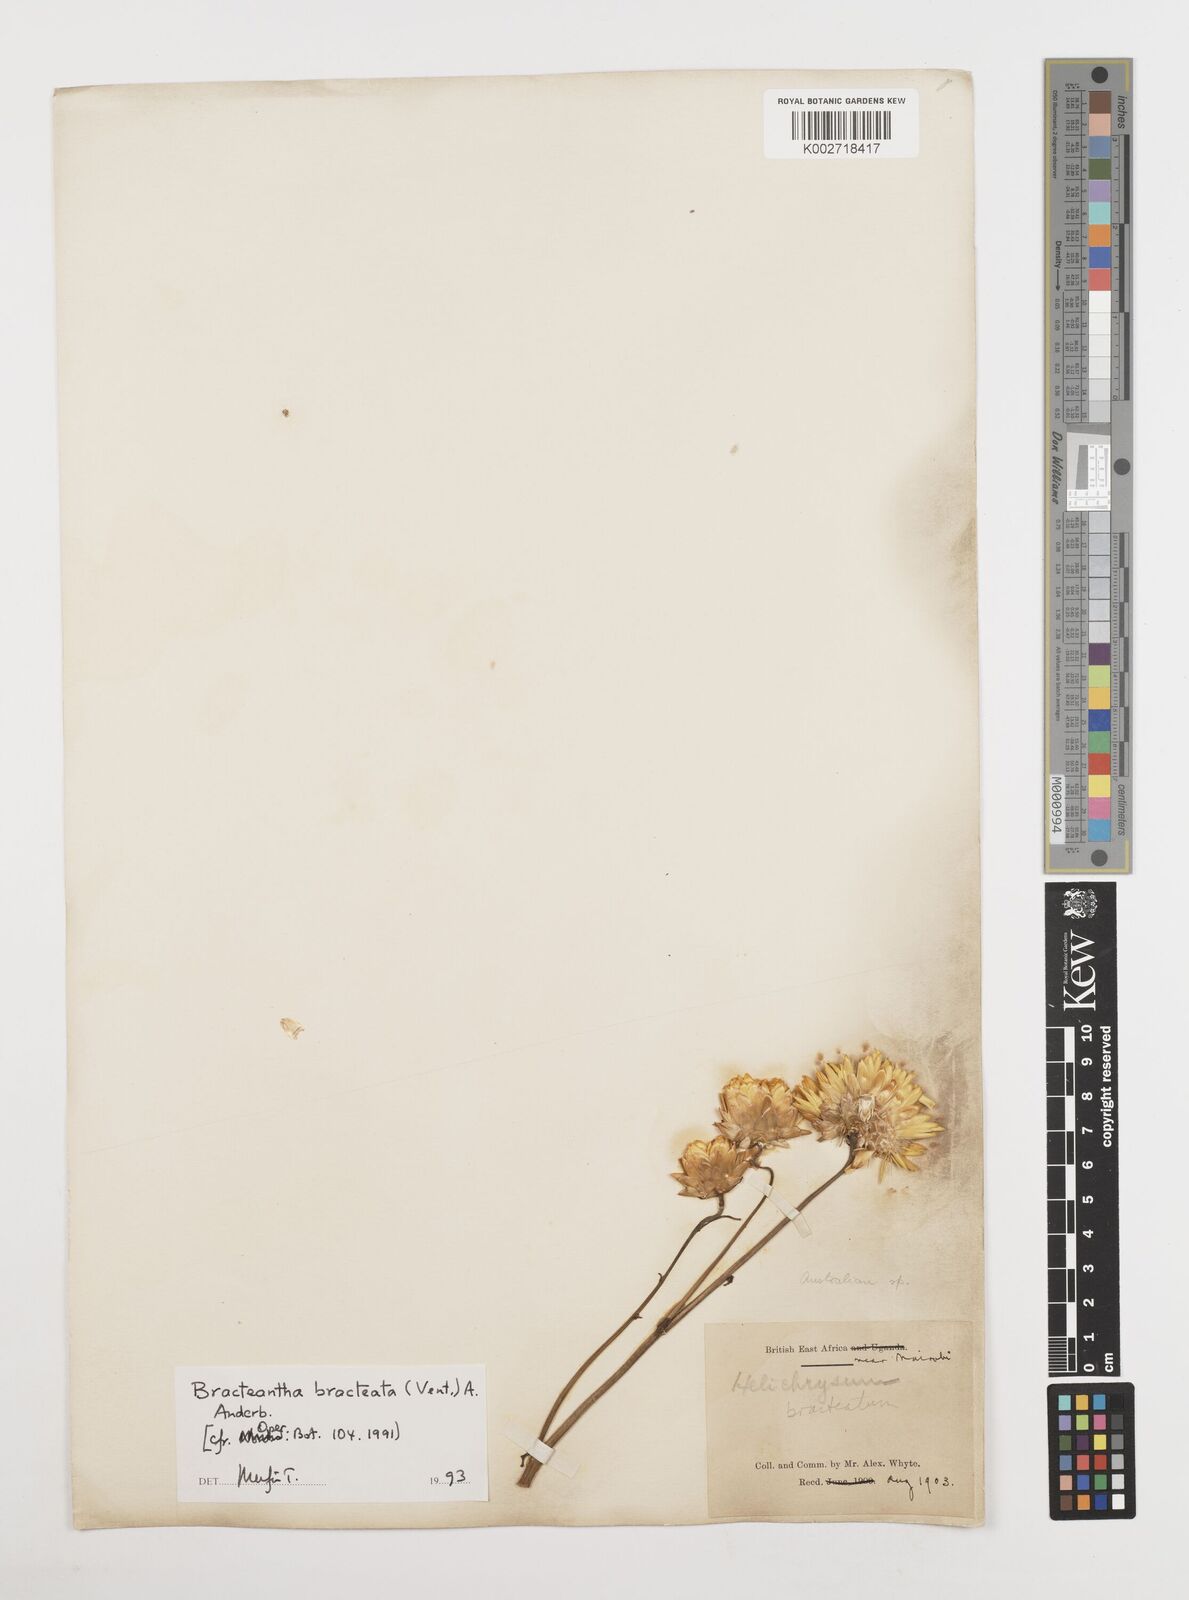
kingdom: Plantae
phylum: Tracheophyta
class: Magnoliopsida
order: Asterales
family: Asteraceae
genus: Xerochrysum
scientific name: Xerochrysum bracteatum
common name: Bracted strawflower
